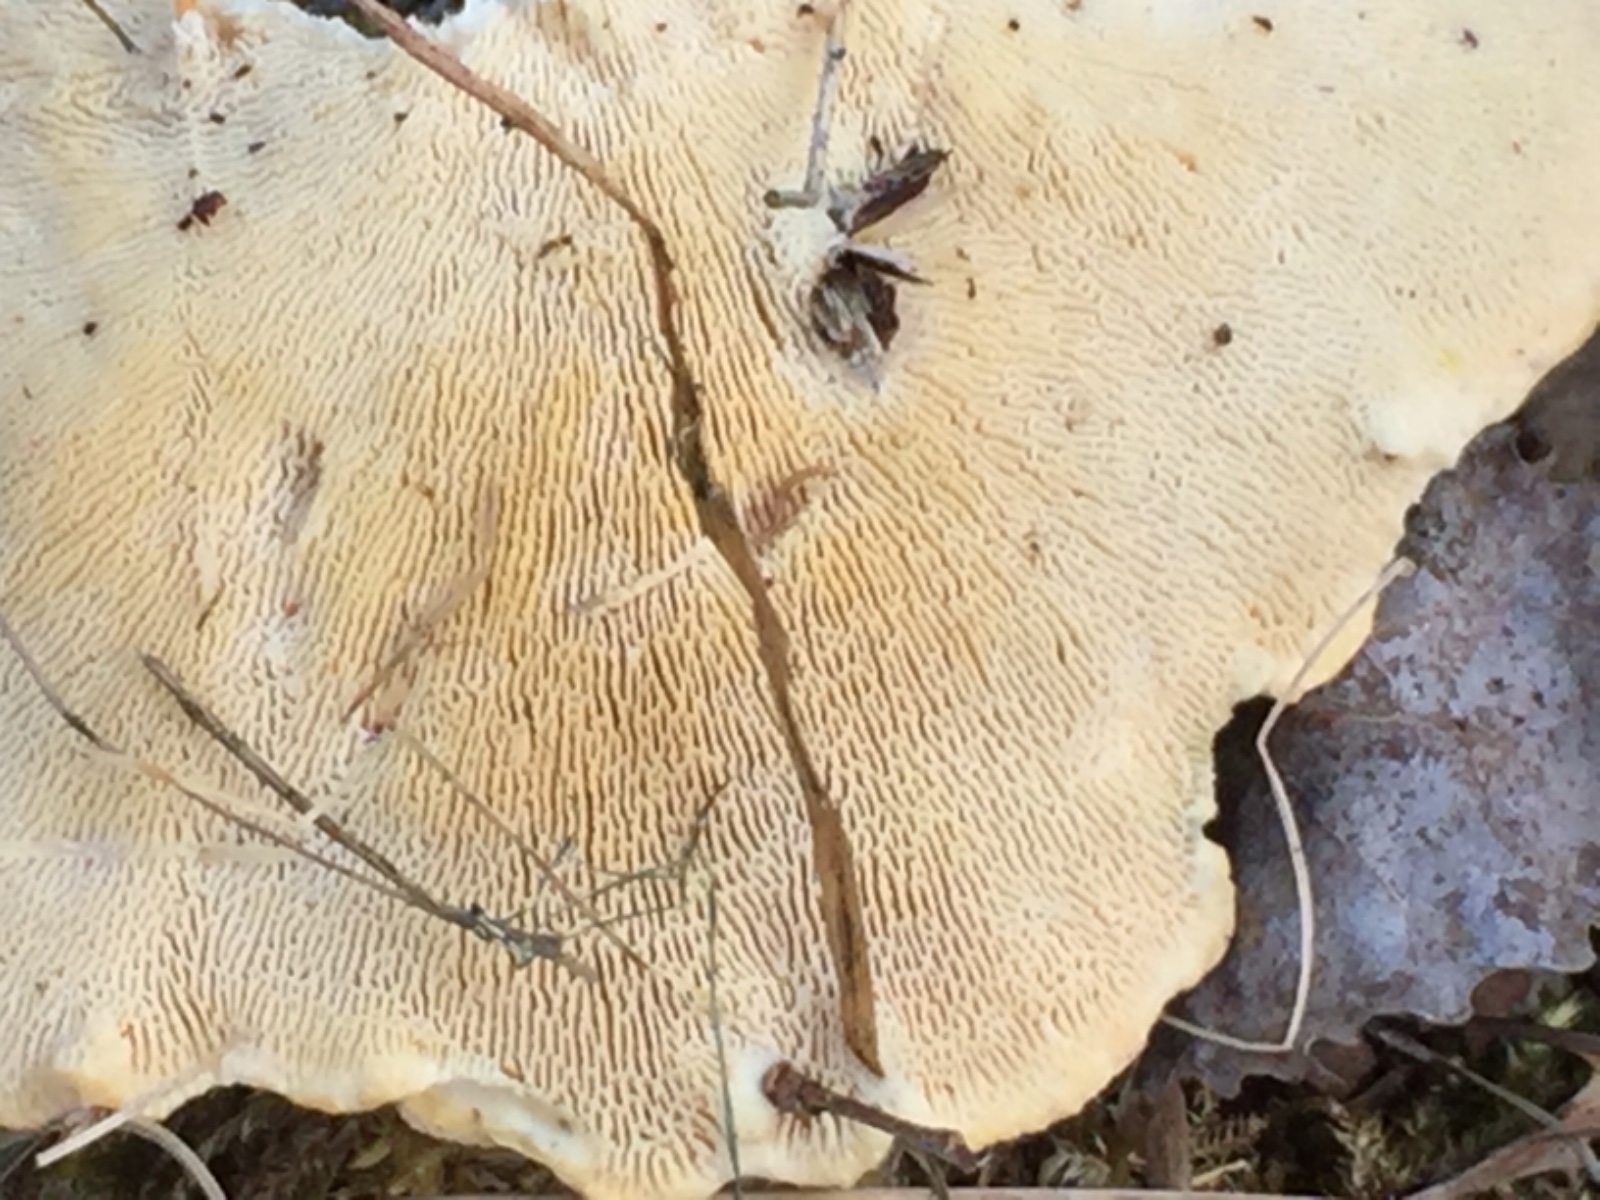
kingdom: Fungi
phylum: Basidiomycota
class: Agaricomycetes
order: Polyporales
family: Polyporaceae
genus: Lenzites
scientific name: Lenzites betulinus
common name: birke-læderporesvamp
